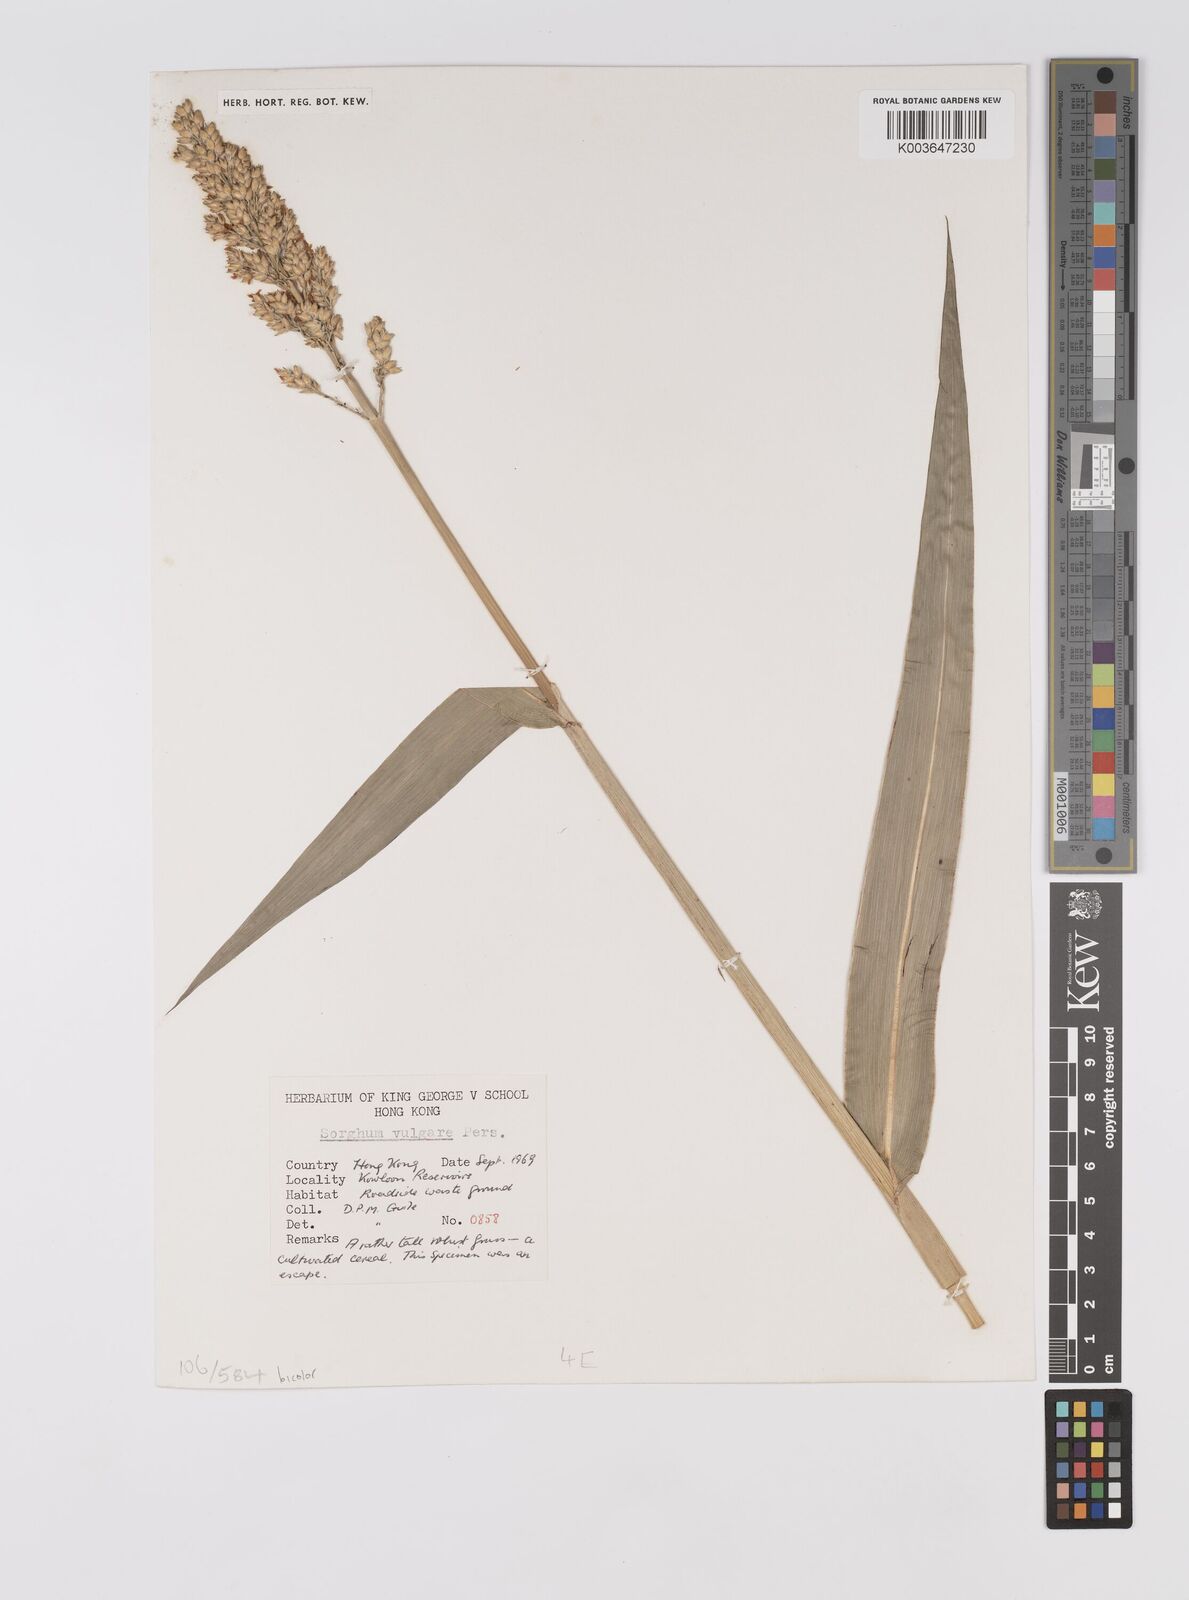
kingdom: Plantae
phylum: Tracheophyta
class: Liliopsida
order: Poales
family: Poaceae
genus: Hyparrhenia
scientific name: Hyparrhenia dichroa
